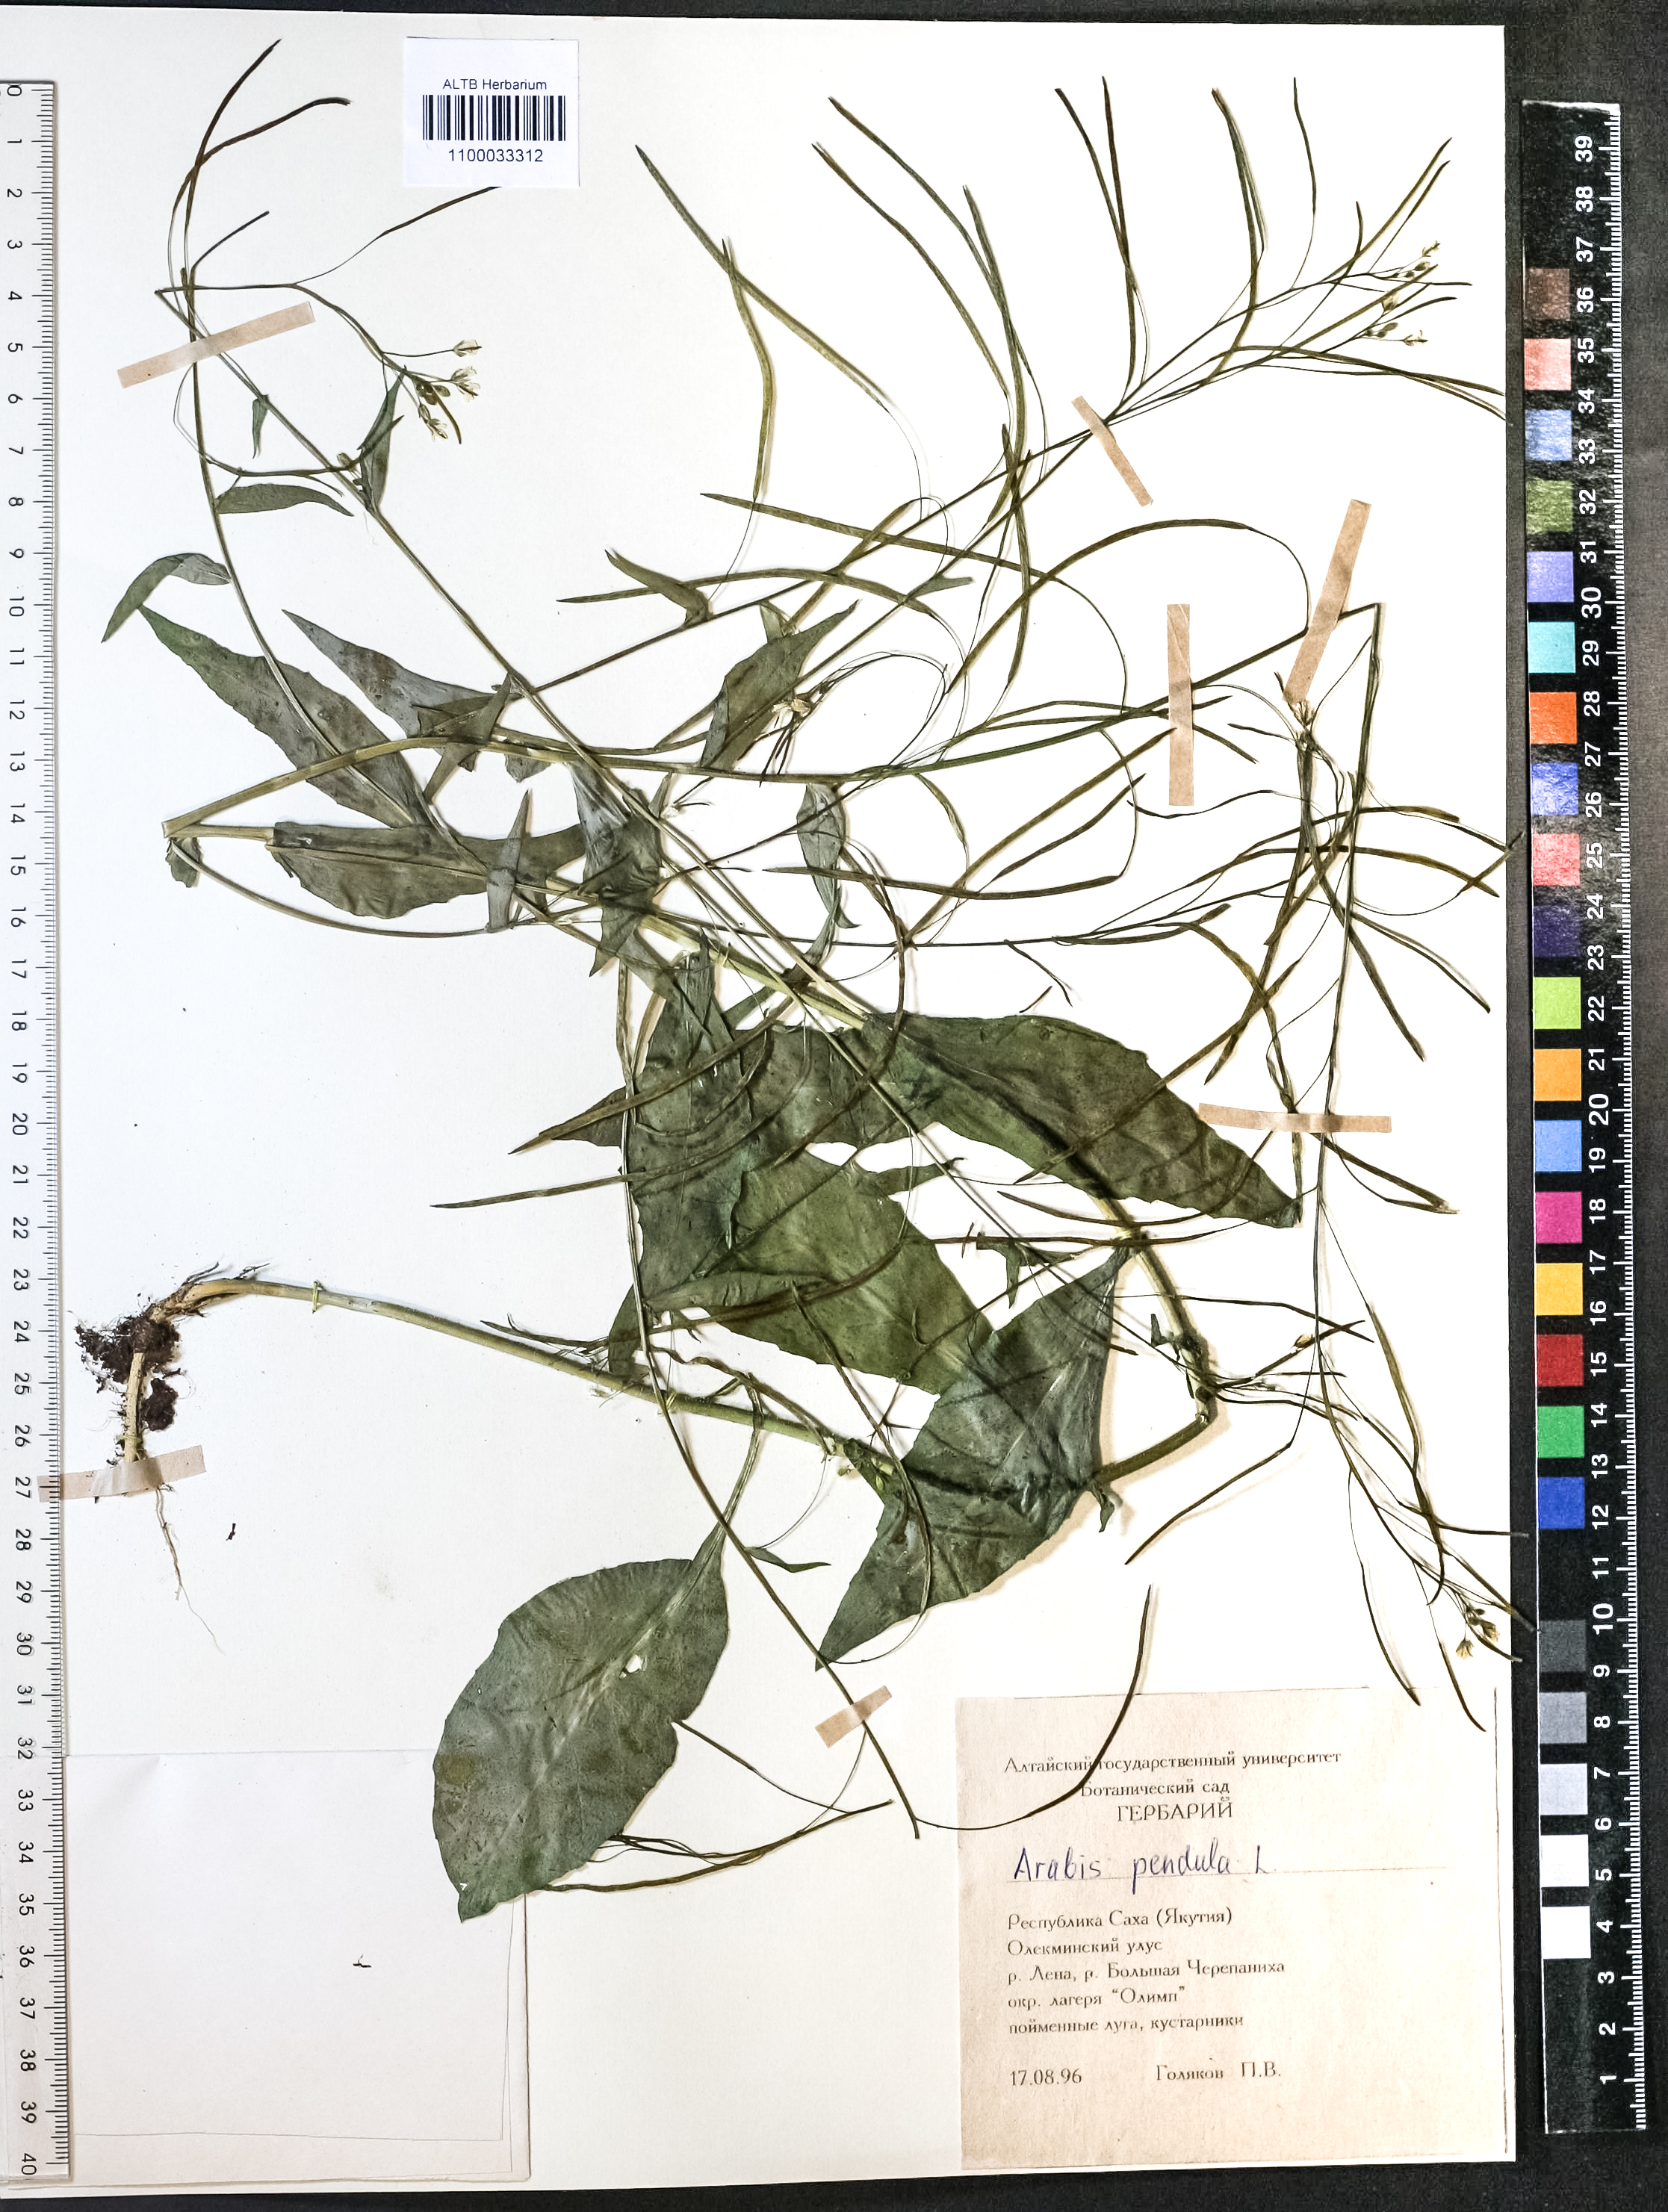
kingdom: Plantae
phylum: Tracheophyta
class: Magnoliopsida
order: Brassicales
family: Brassicaceae
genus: Catolobus
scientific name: Catolobus pendulus
